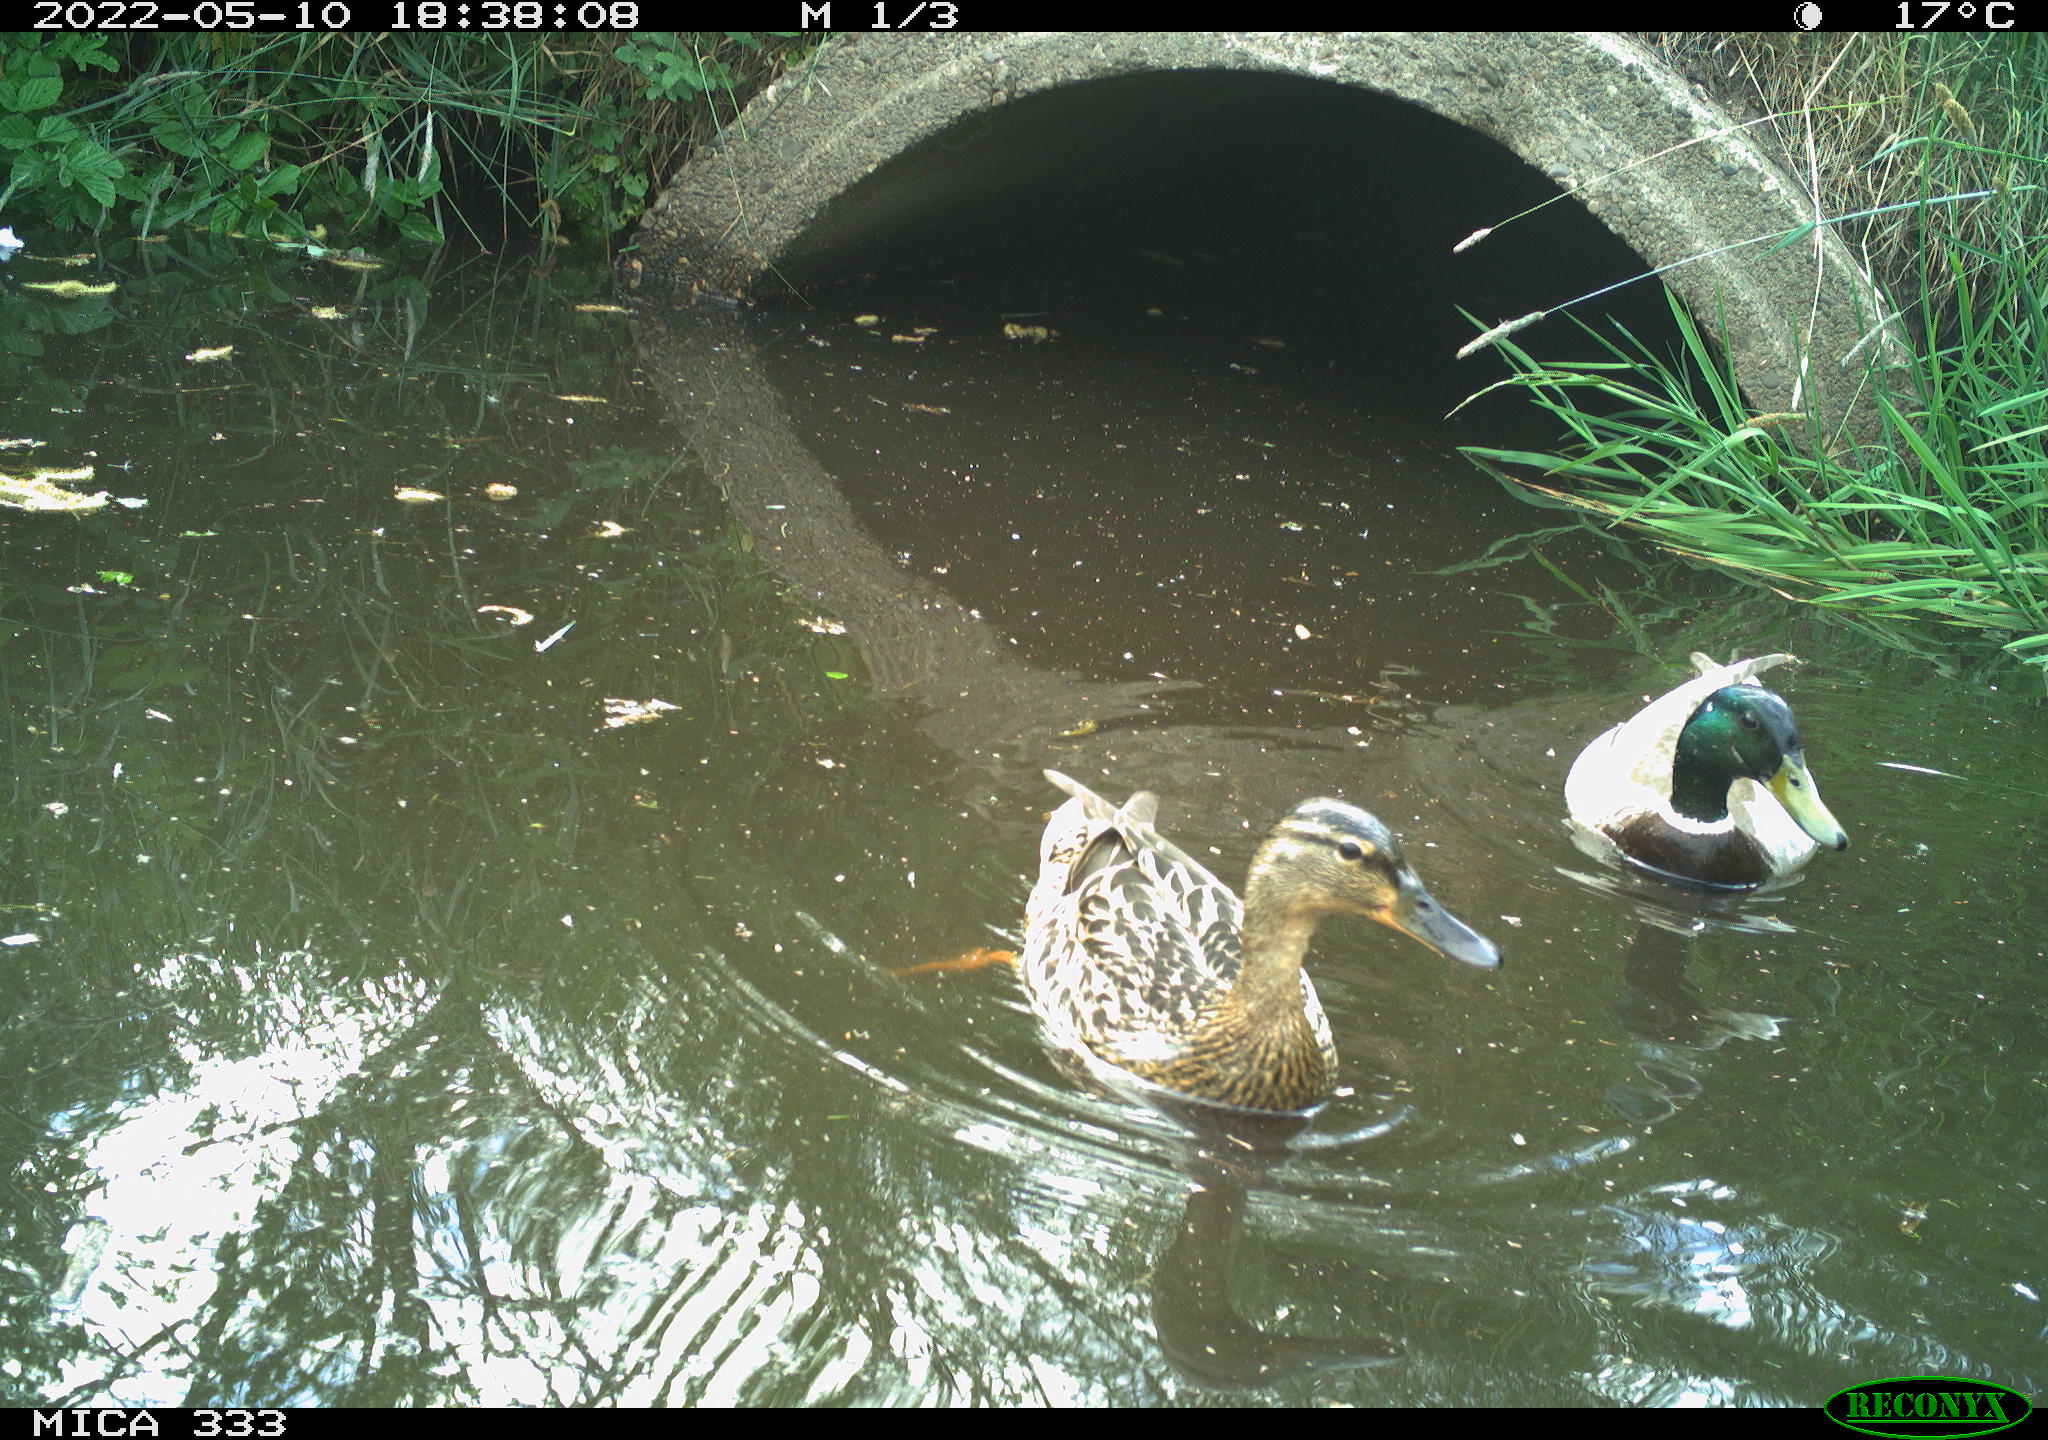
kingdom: Animalia
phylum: Chordata
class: Aves
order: Anseriformes
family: Anatidae
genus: Anas
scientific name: Anas platyrhynchos
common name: Mallard
